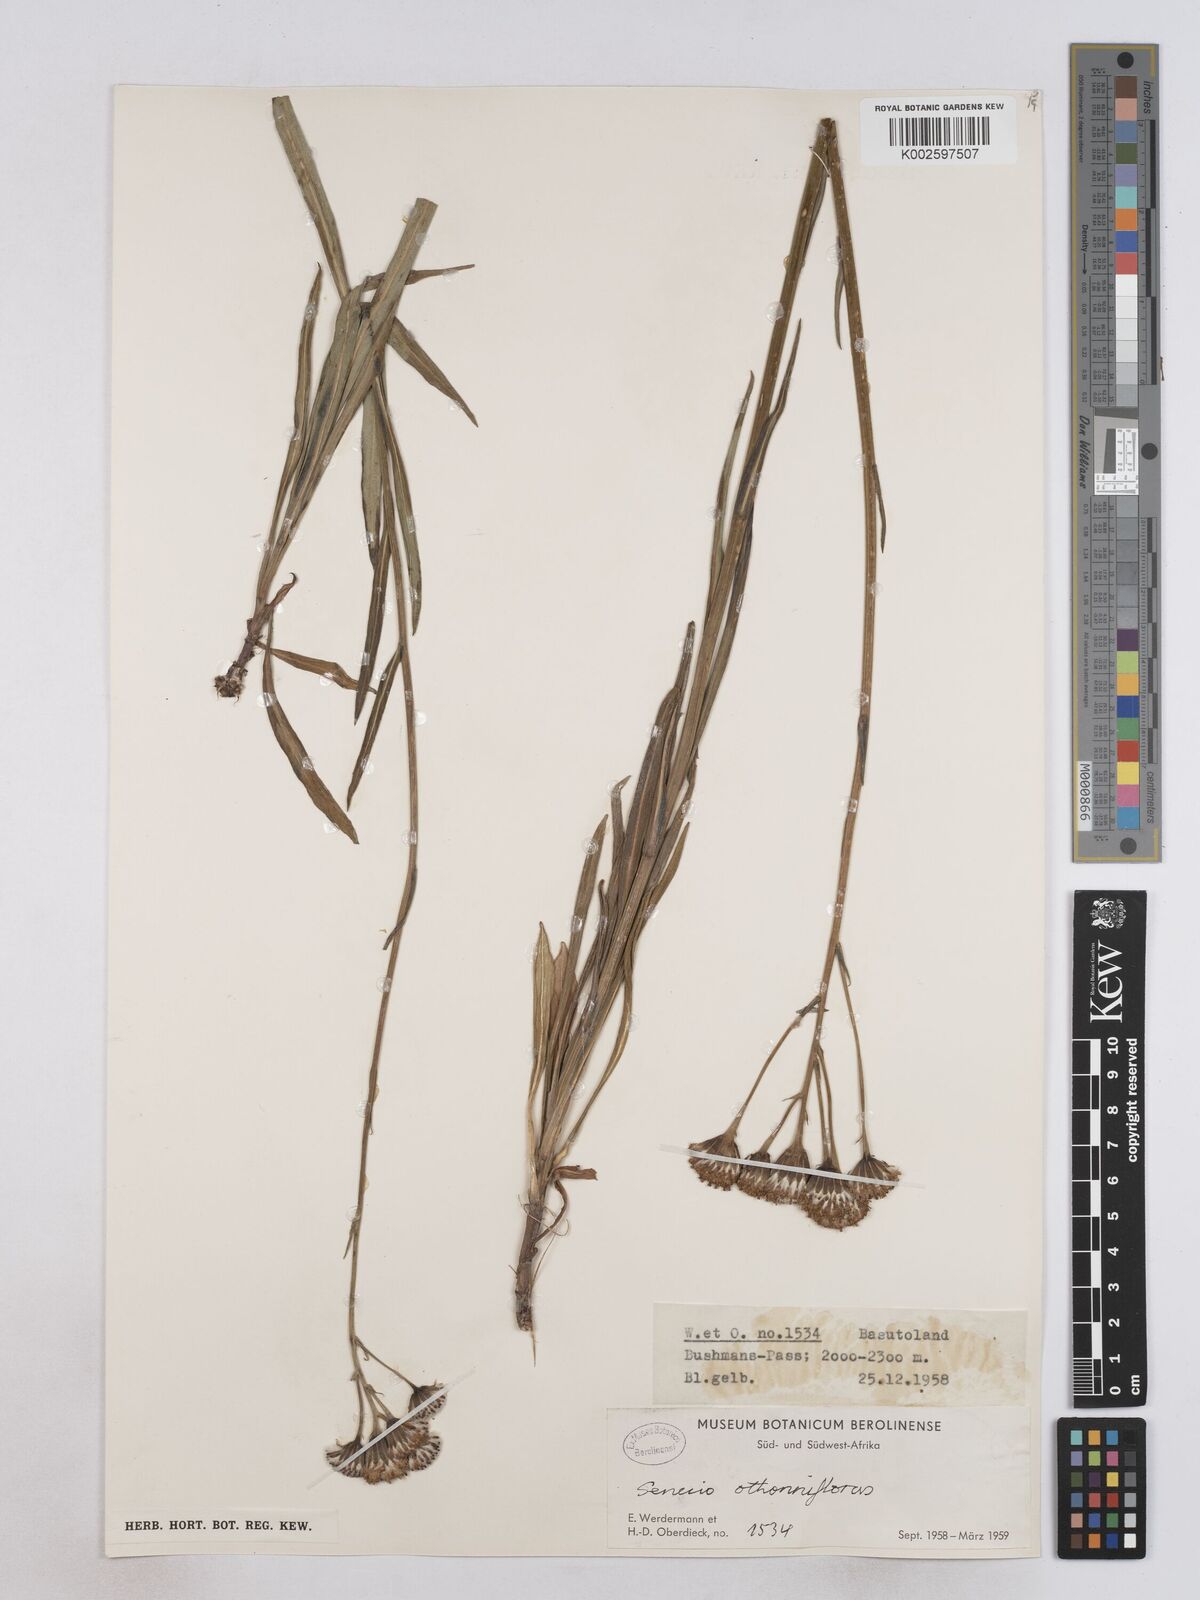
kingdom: Plantae
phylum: Tracheophyta
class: Magnoliopsida
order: Asterales
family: Asteraceae
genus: Senecio
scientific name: Senecio othonniflorus
